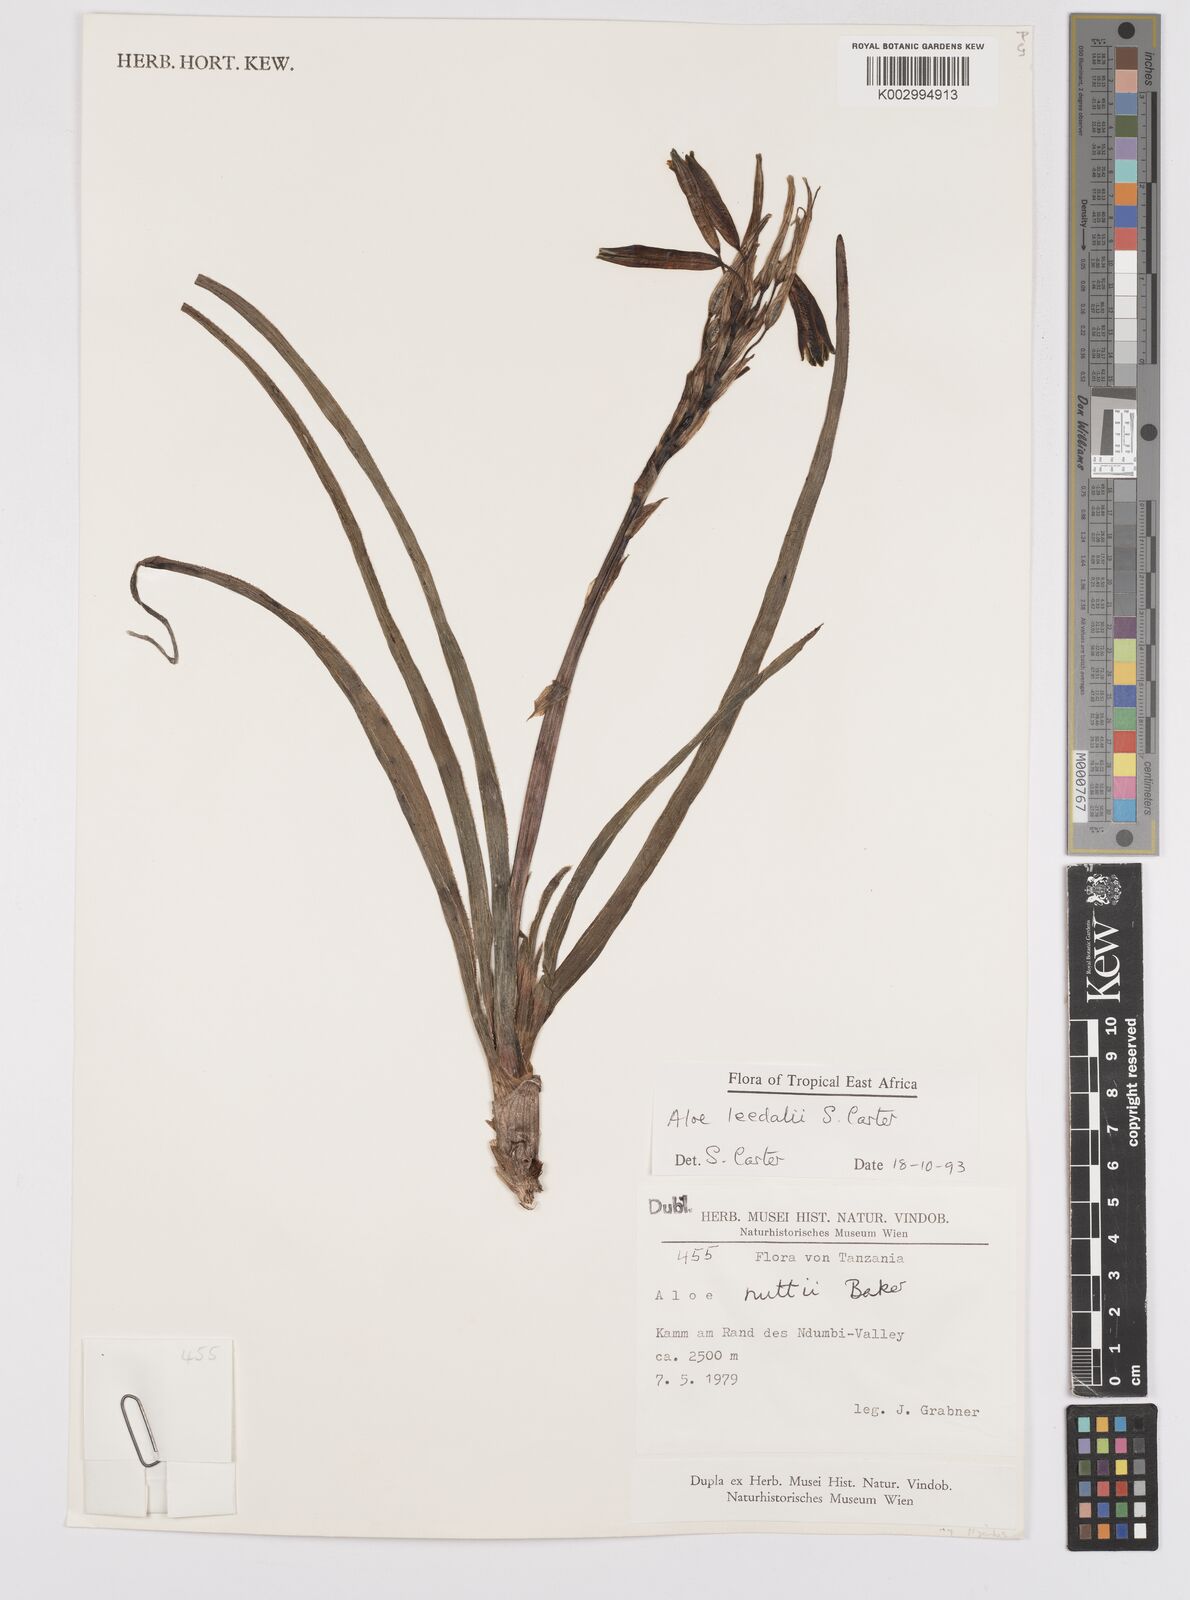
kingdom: Plantae
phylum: Tracheophyta
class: Liliopsida
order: Asparagales
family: Asphodelaceae
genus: Aloe
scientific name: Aloe leedalii
